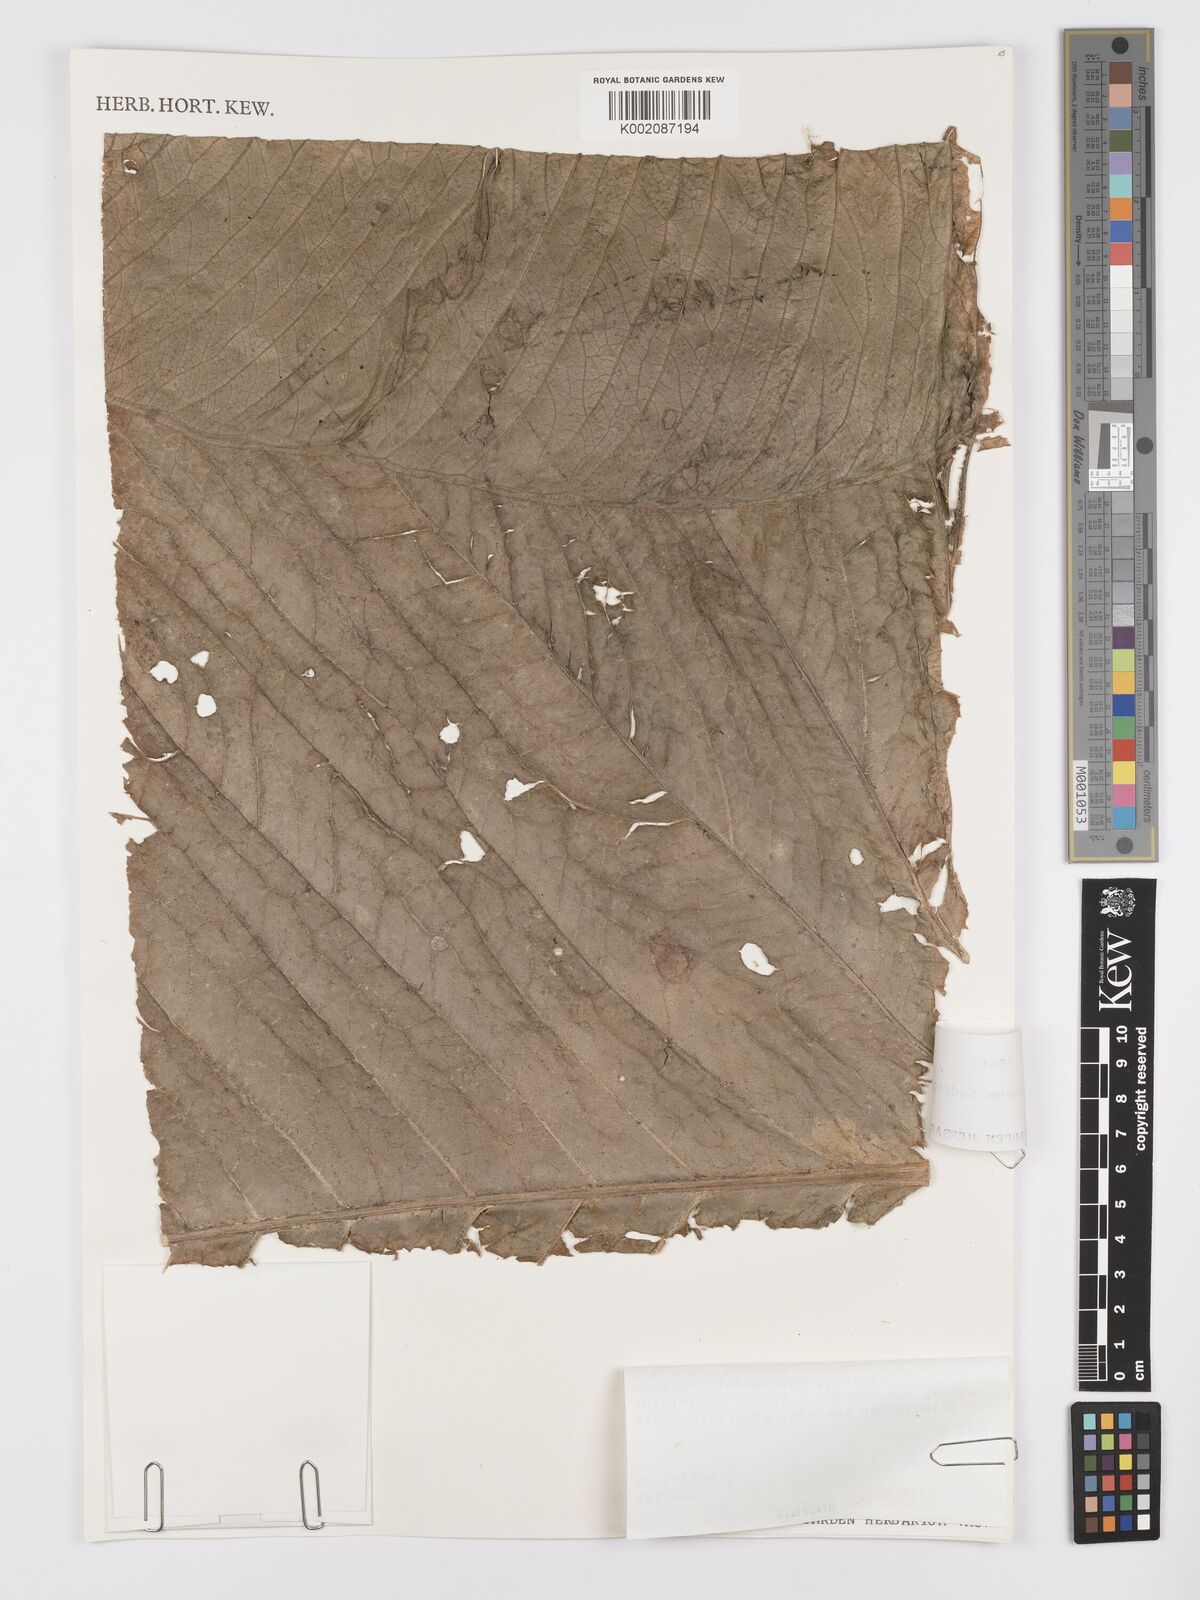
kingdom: Plantae
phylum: Tracheophyta
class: Liliopsida
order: Alismatales
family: Araceae
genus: Anthurium
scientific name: Anthurium umbraculum
